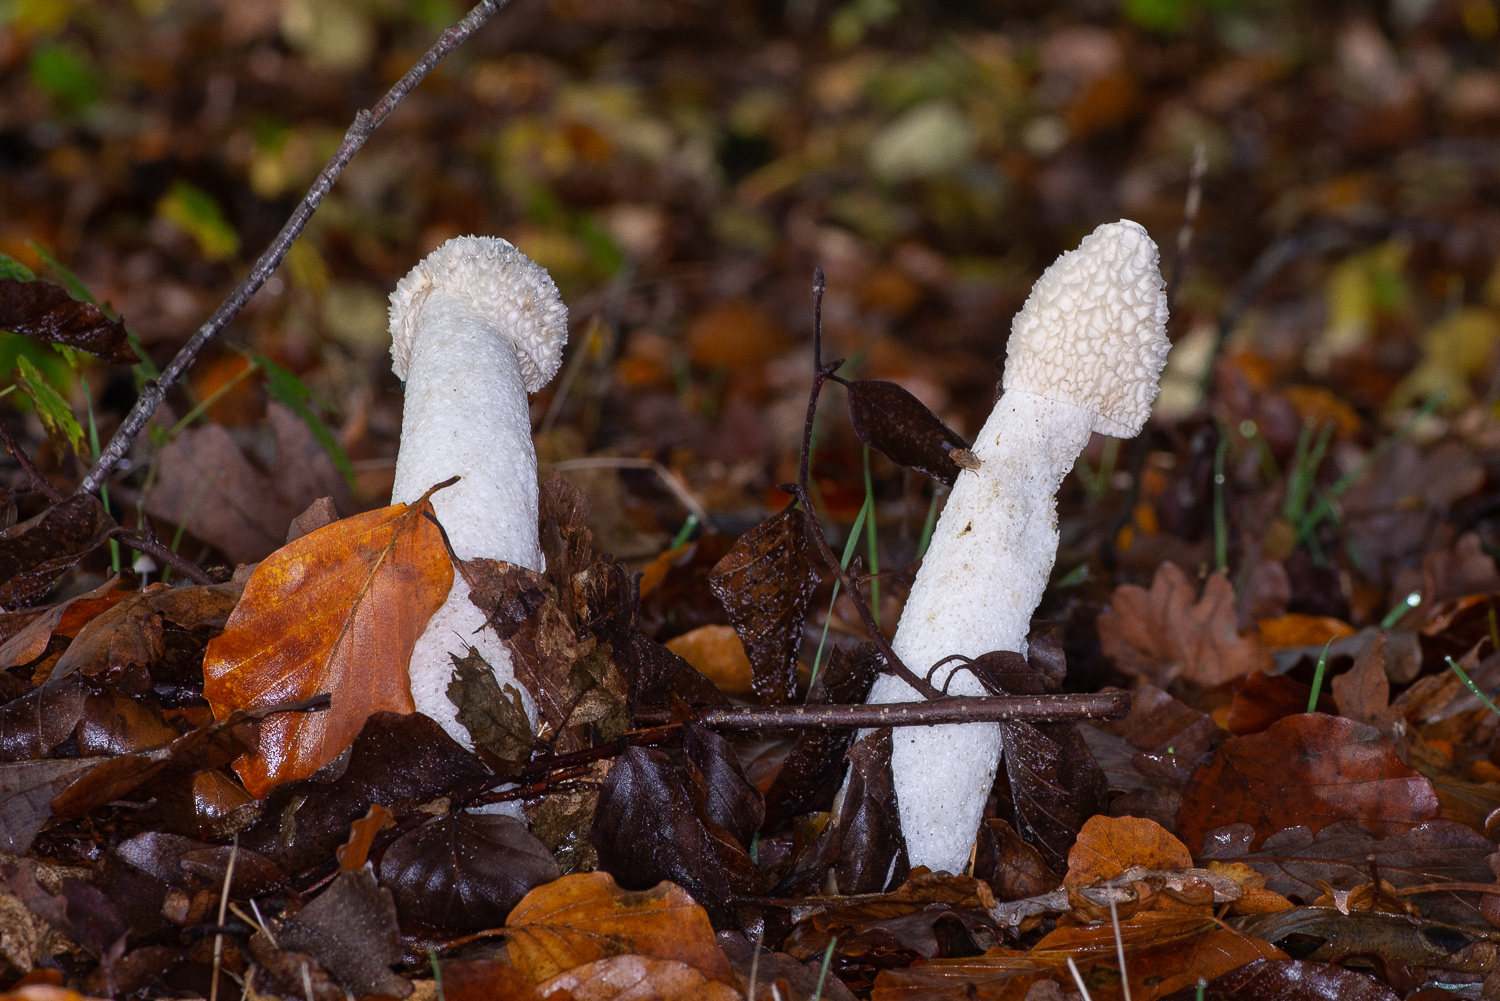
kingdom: Fungi
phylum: Basidiomycota
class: Agaricomycetes
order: Phallales
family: Phallaceae
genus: Phallus
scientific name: Phallus impudicus
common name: almindelig stinksvamp
